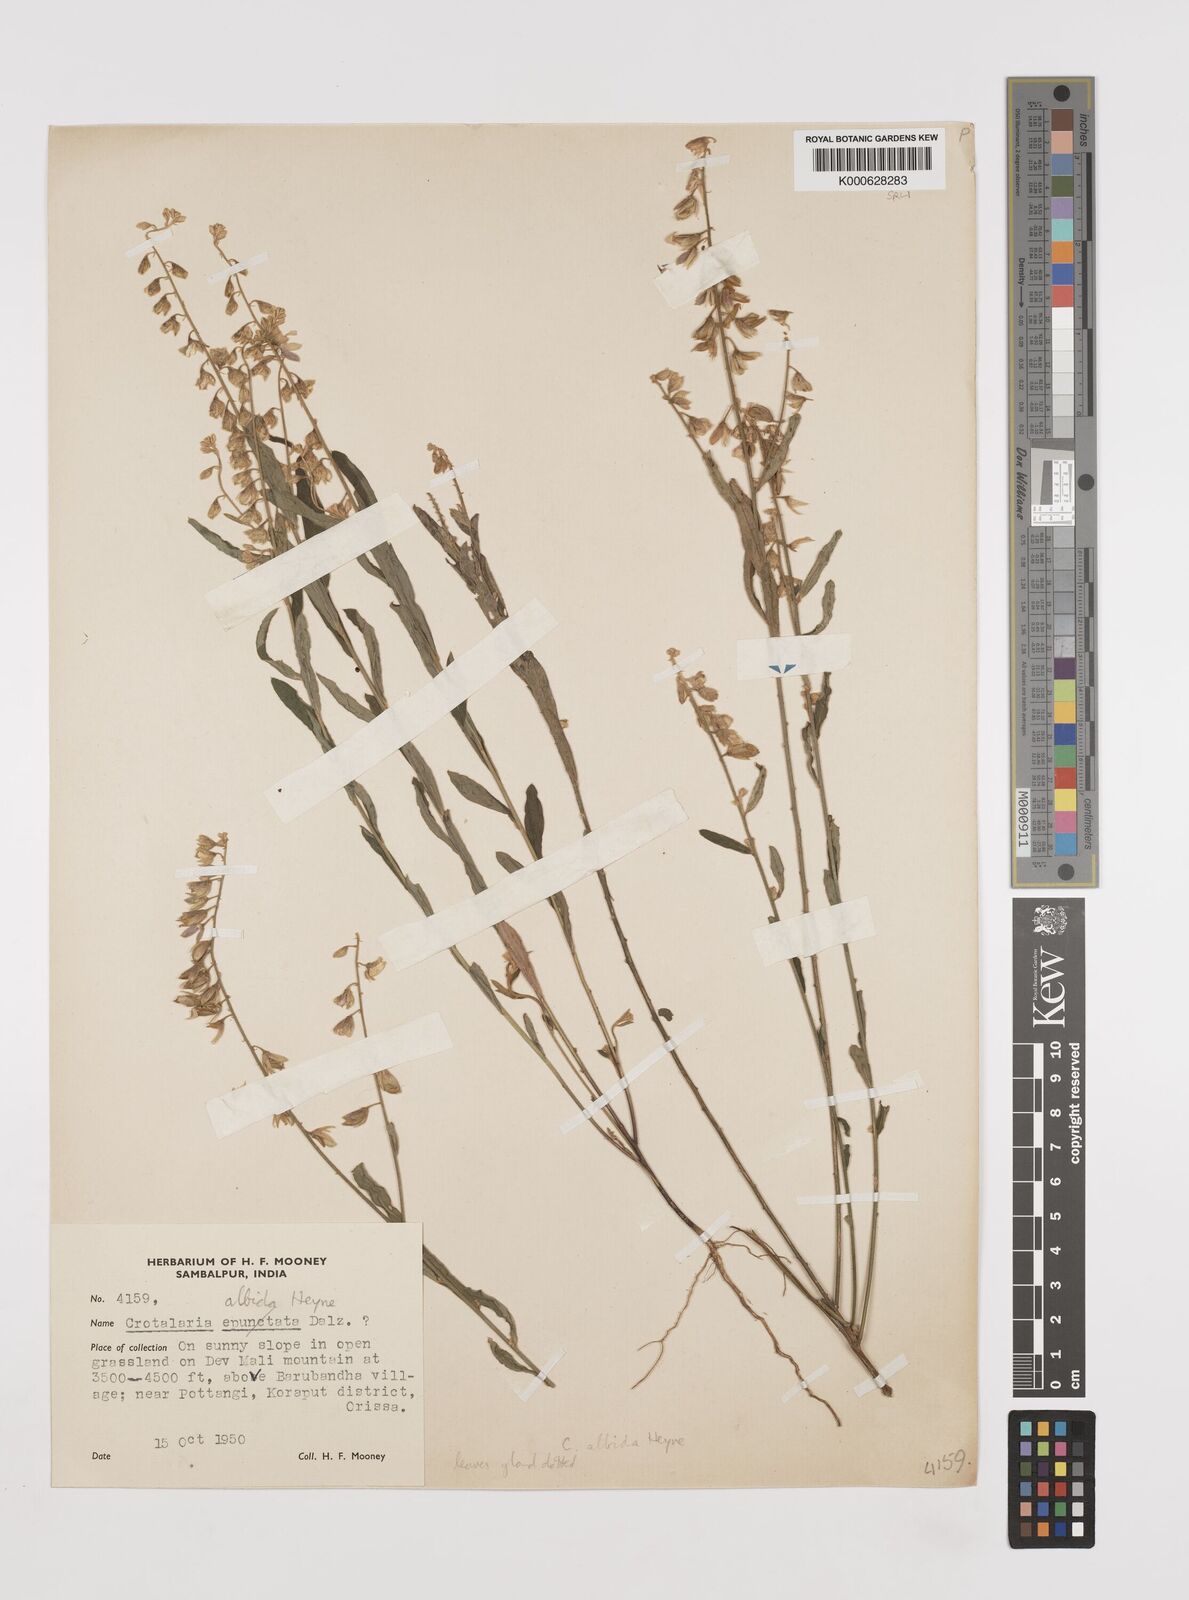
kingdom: Plantae
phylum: Tracheophyta
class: Magnoliopsida
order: Fabales
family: Fabaceae
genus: Crotalaria
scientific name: Crotalaria albida
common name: Taiwan crotalaria
